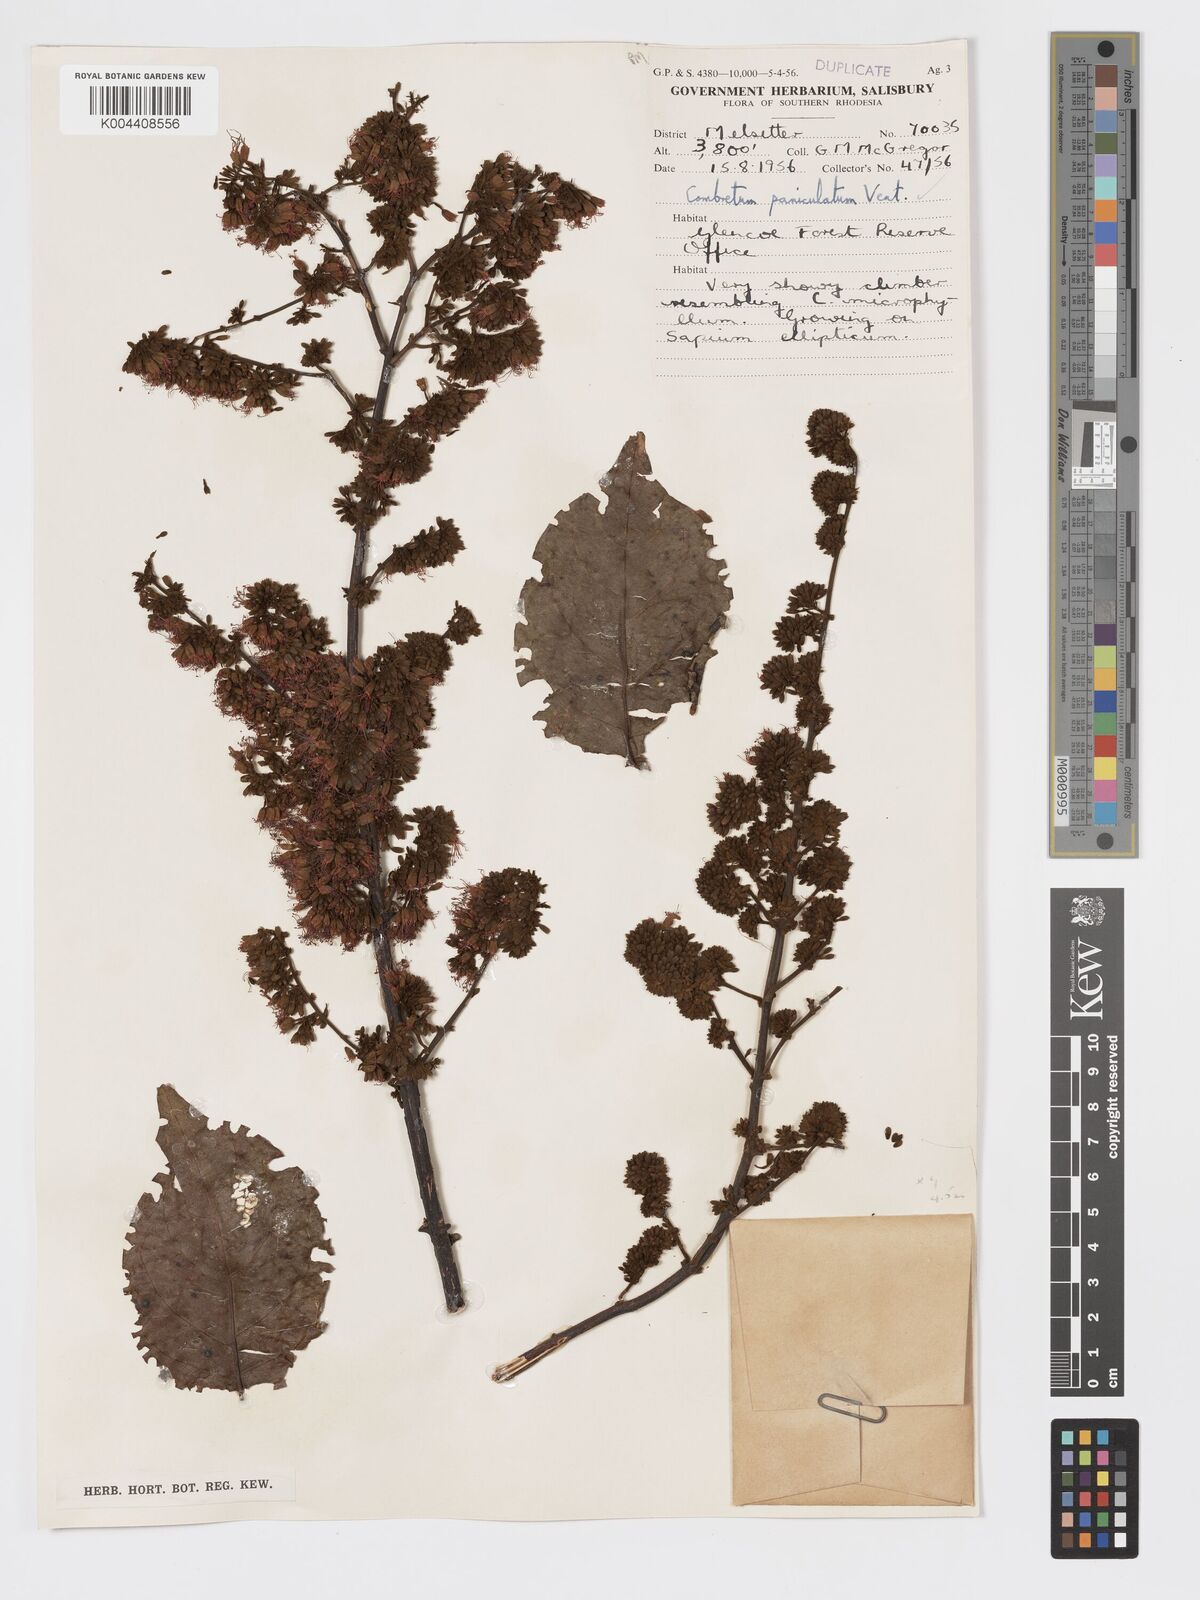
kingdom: Plantae
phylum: Tracheophyta
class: Magnoliopsida
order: Myrtales
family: Combretaceae
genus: Combretum
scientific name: Combretum paniculatum
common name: Fire vine
